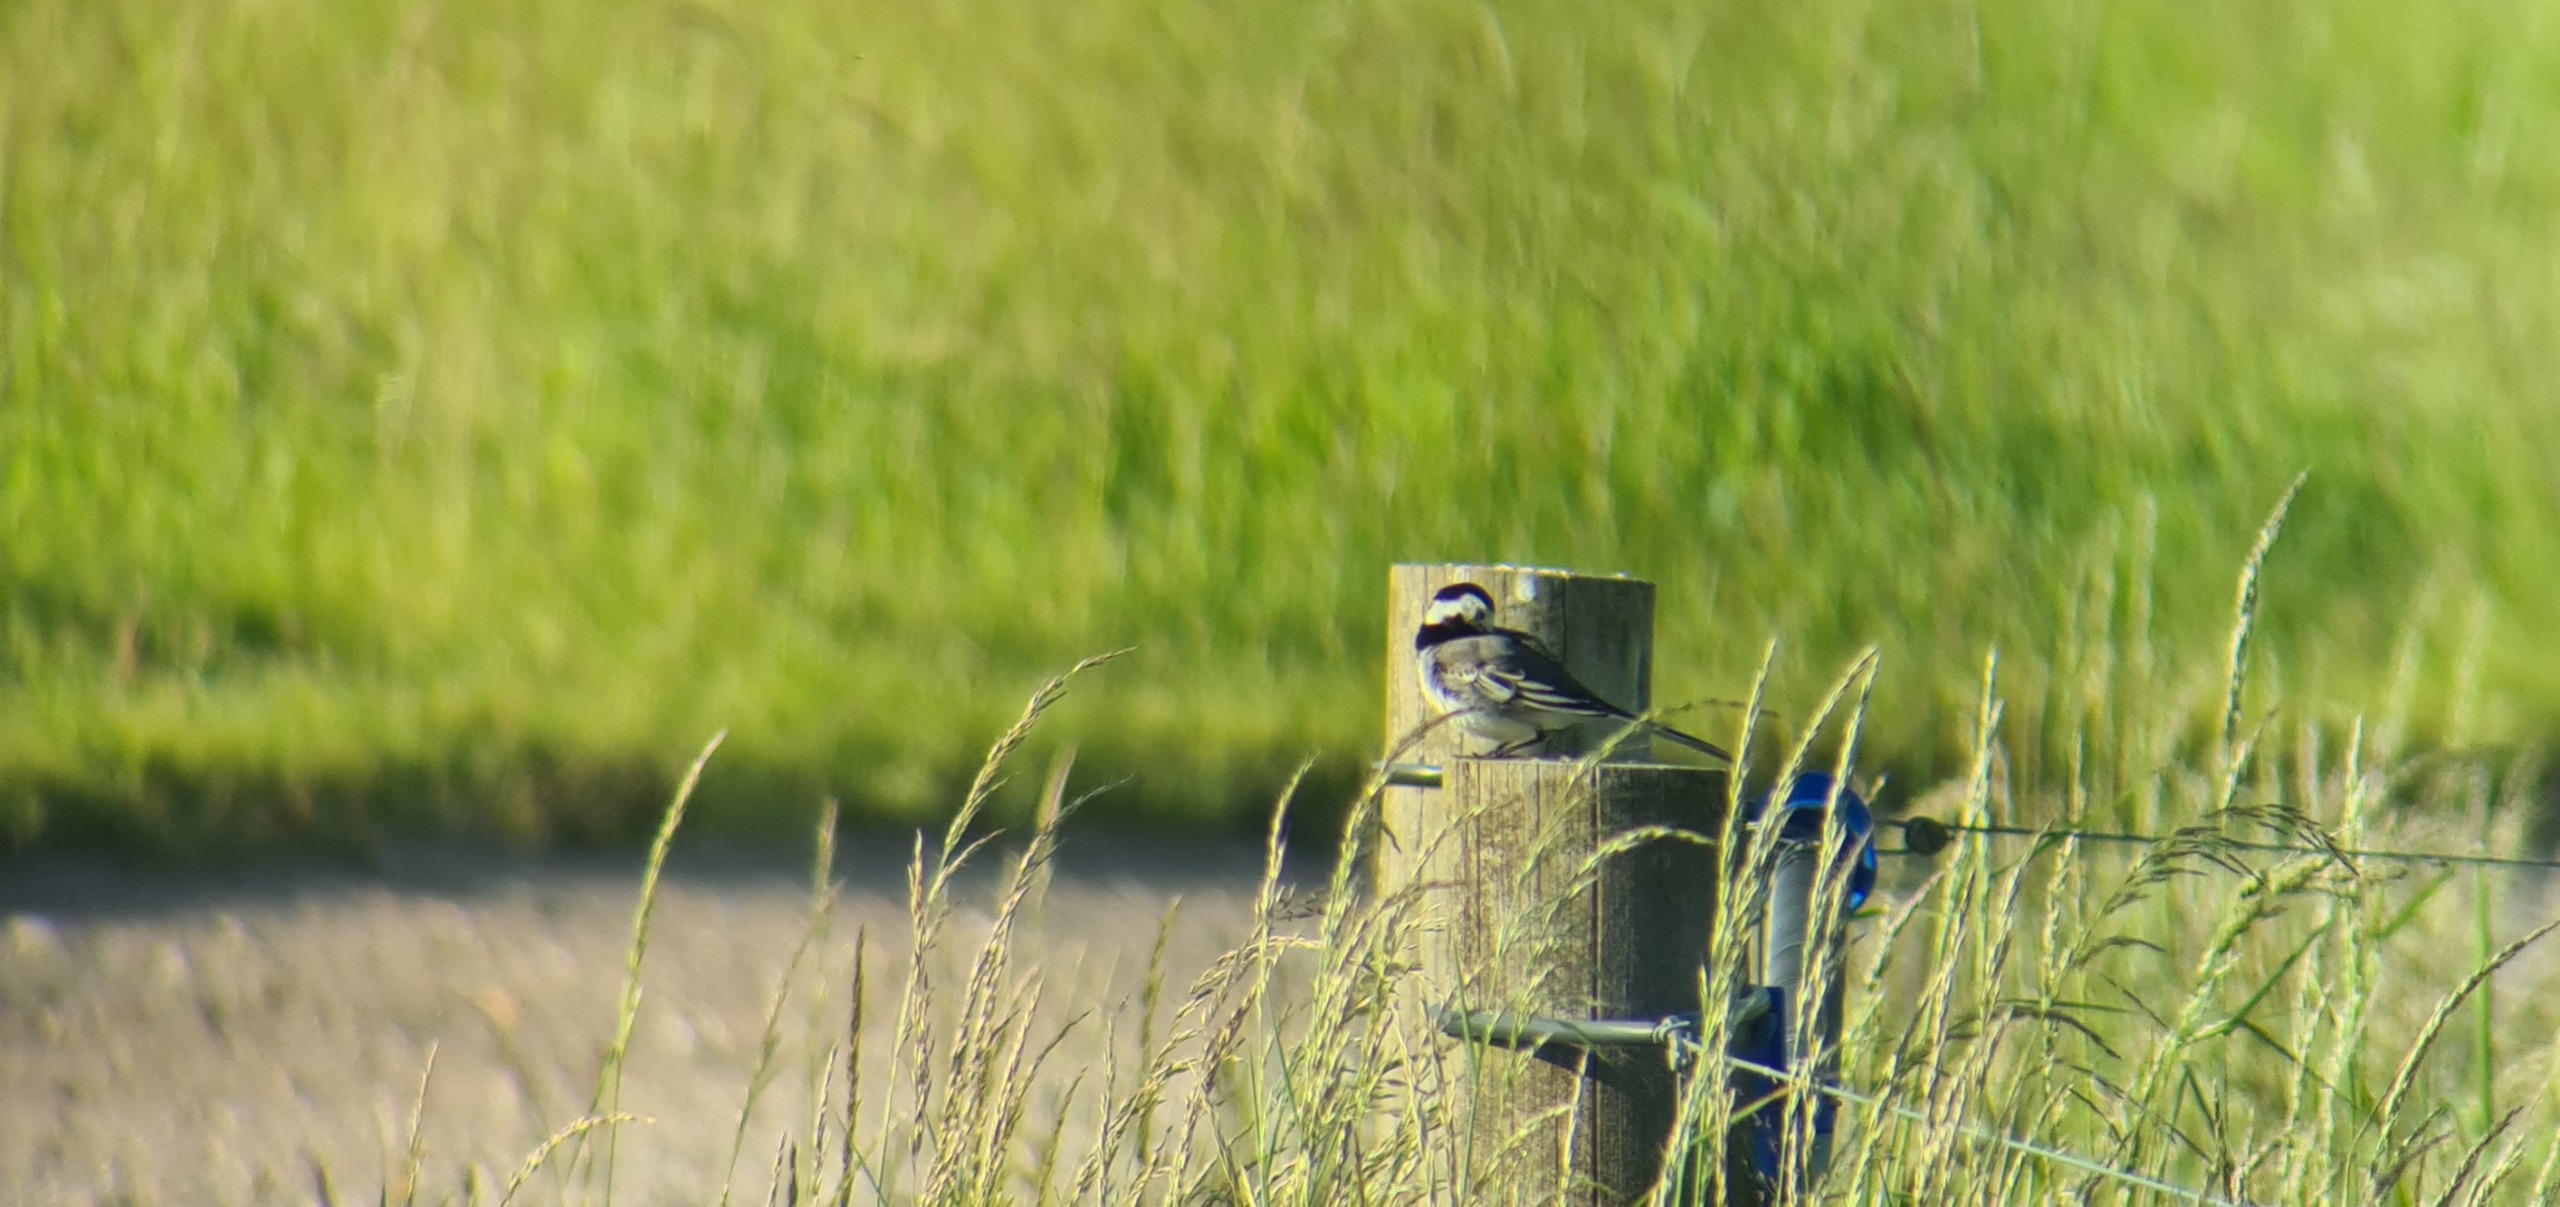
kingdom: Animalia
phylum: Chordata
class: Aves
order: Passeriformes
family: Motacillidae
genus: Motacilla
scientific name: Motacilla alba
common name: Hvid vipstjert
